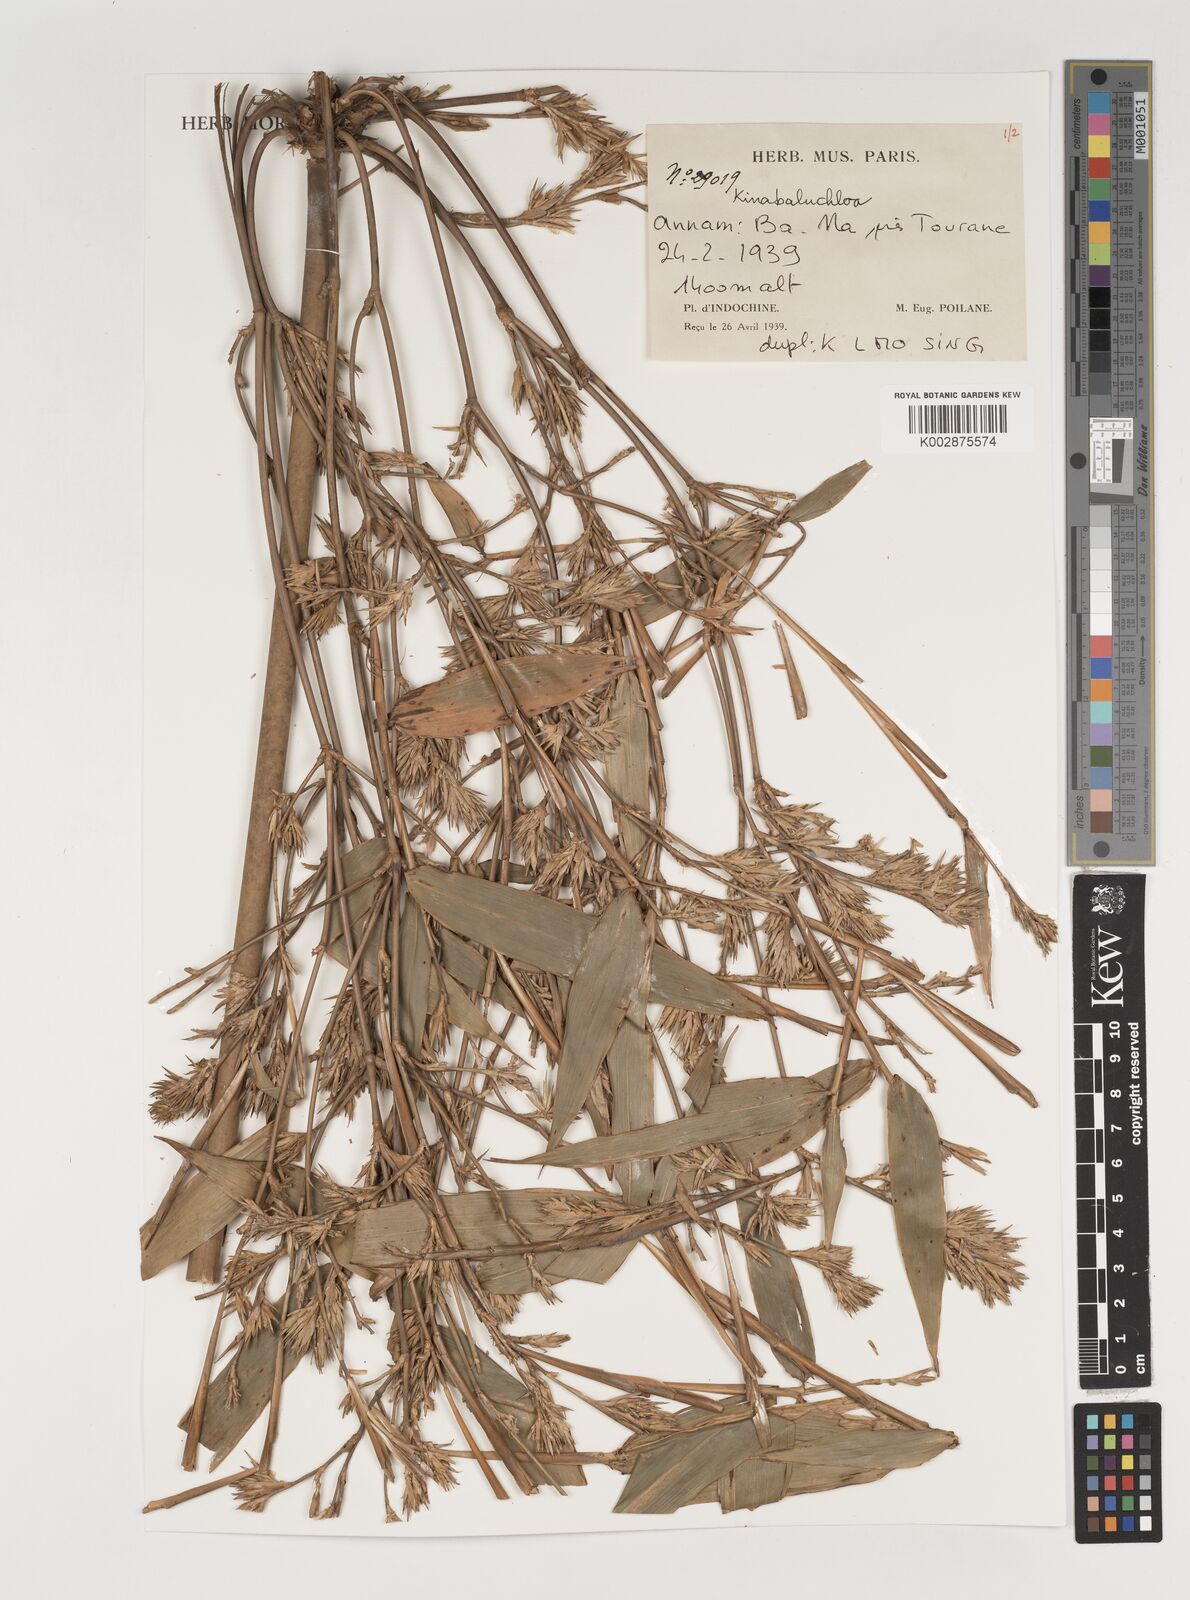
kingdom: Plantae
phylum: Tracheophyta
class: Liliopsida
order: Poales
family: Poaceae
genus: Kinabaluchloa
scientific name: Kinabaluchloa
